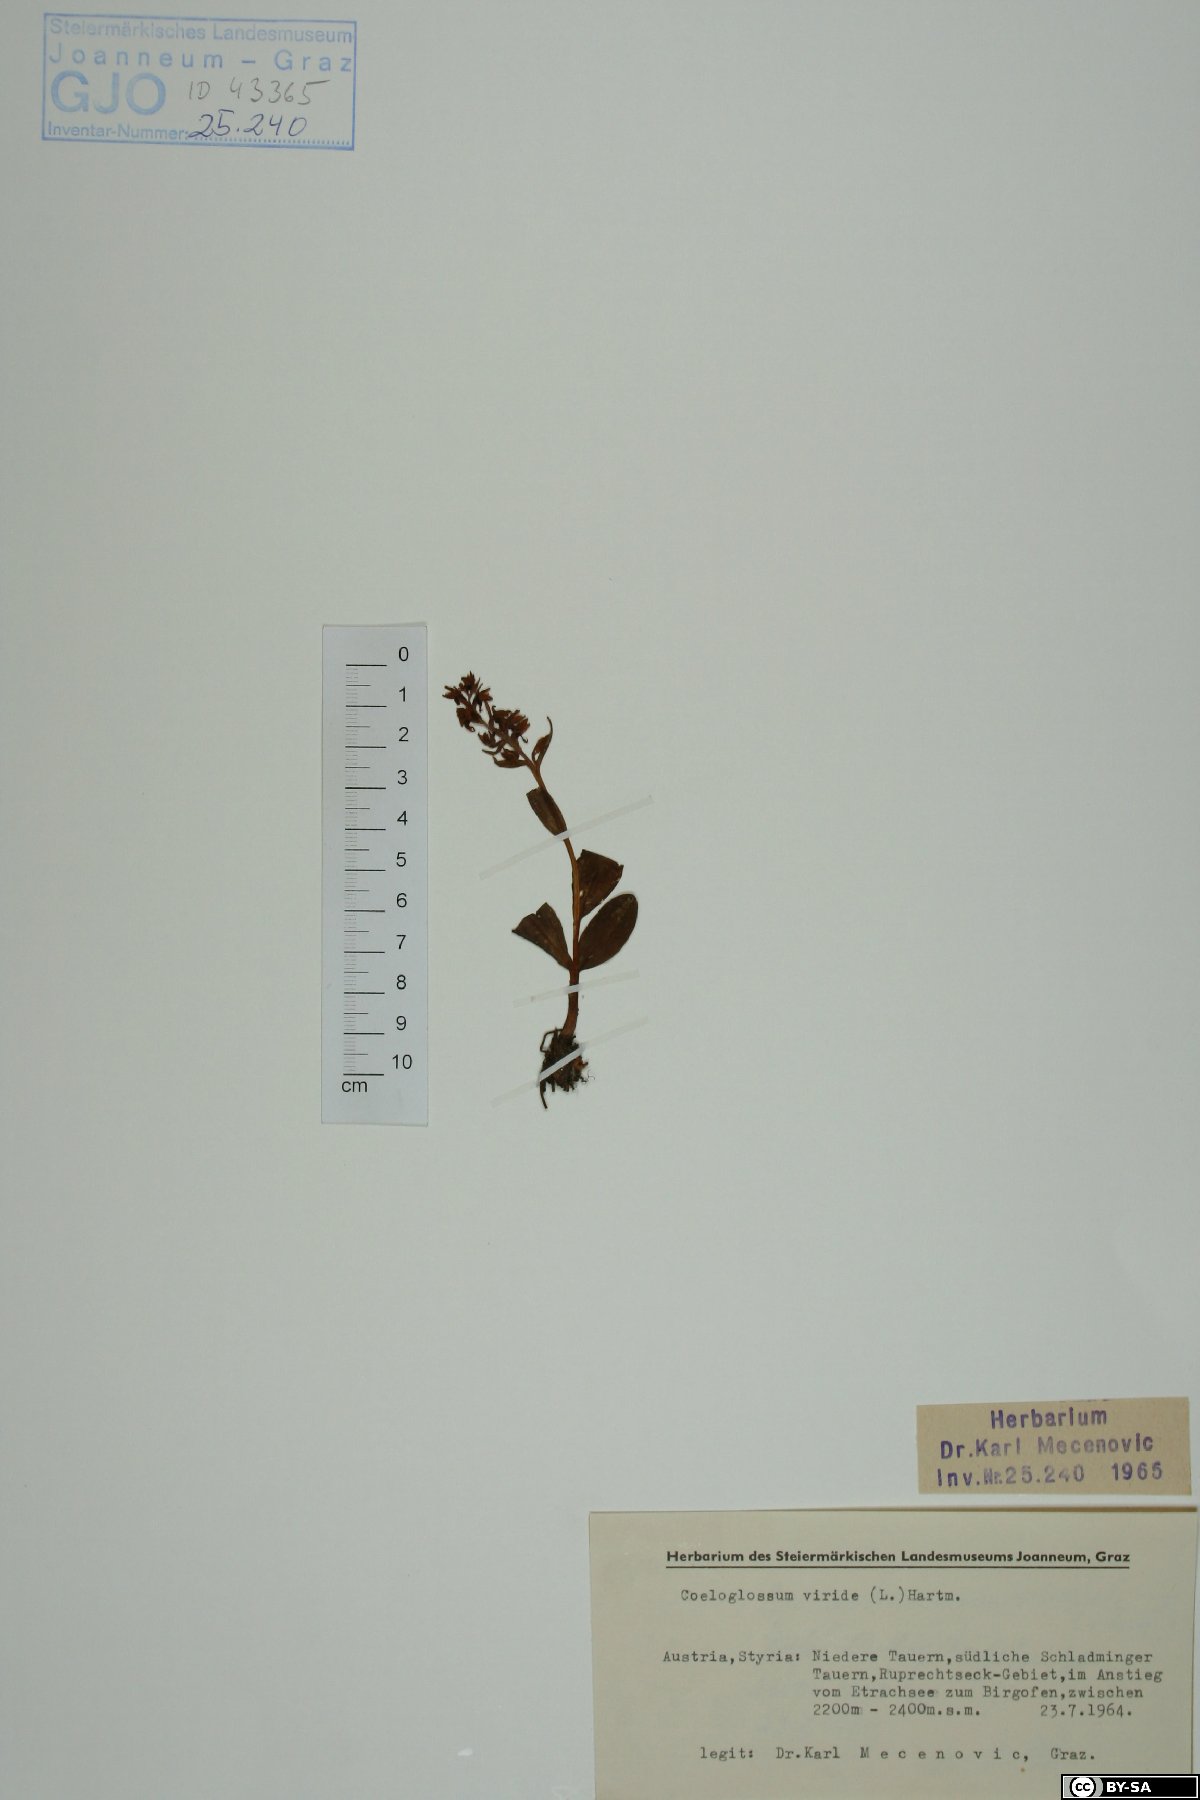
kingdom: Plantae
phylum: Tracheophyta
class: Liliopsida
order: Asparagales
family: Orchidaceae
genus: Dactylorhiza
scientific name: Dactylorhiza viridis
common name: Longbract frog orchid
